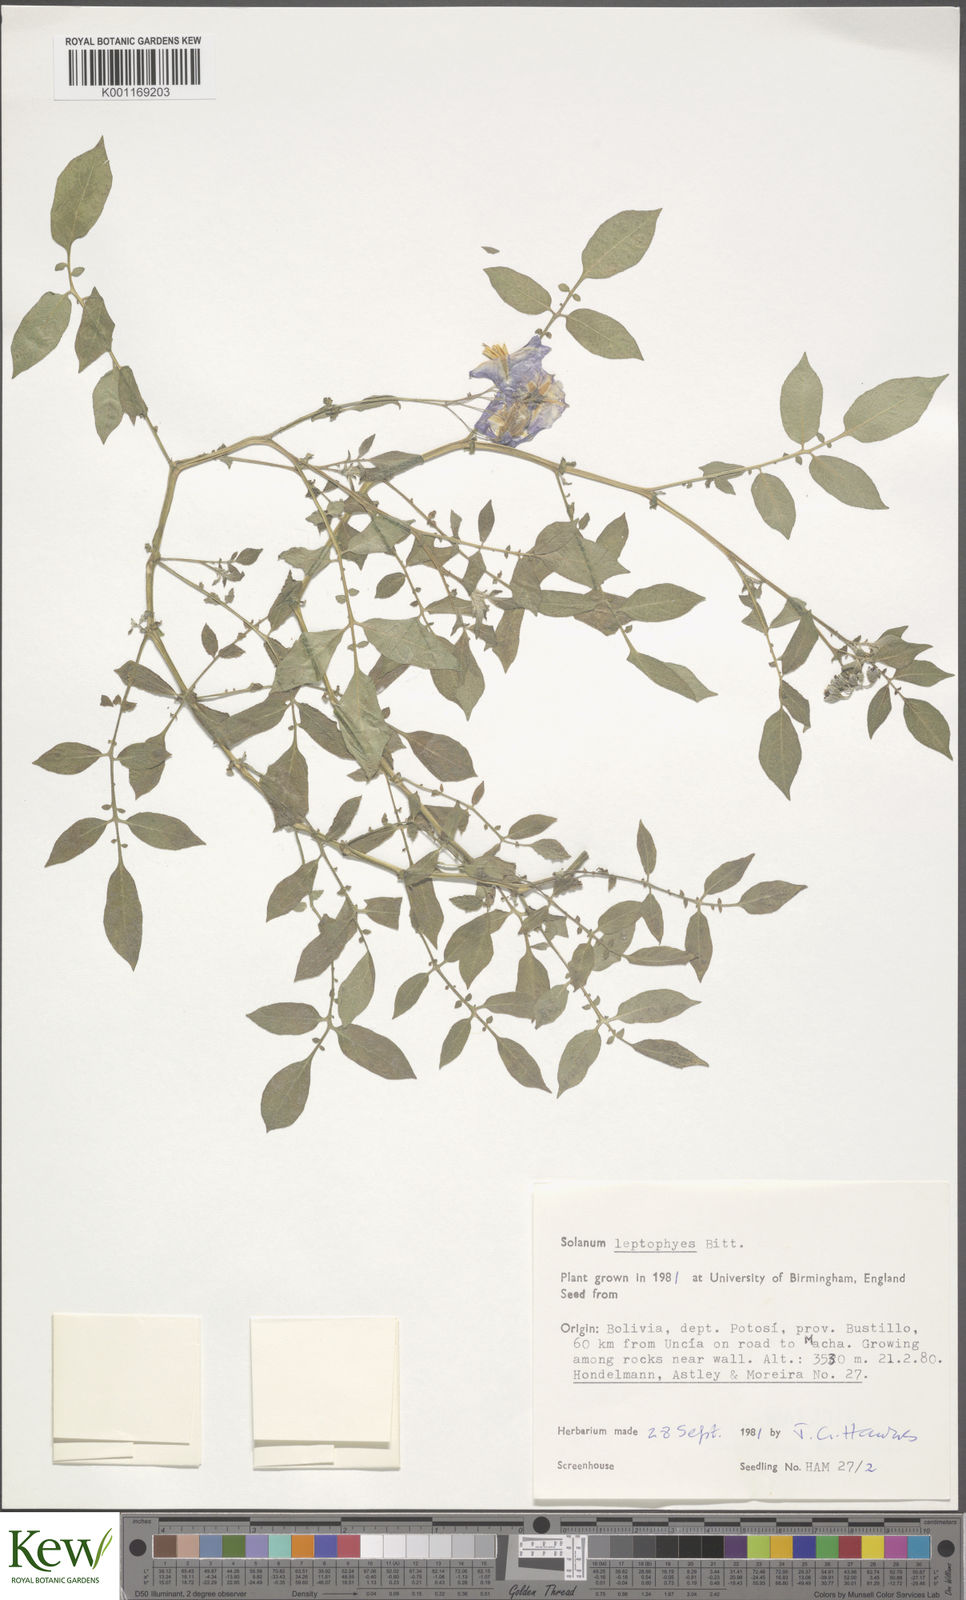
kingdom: Plantae
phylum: Tracheophyta
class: Magnoliopsida
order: Solanales
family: Solanaceae
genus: Solanum
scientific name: Solanum brevicaule
